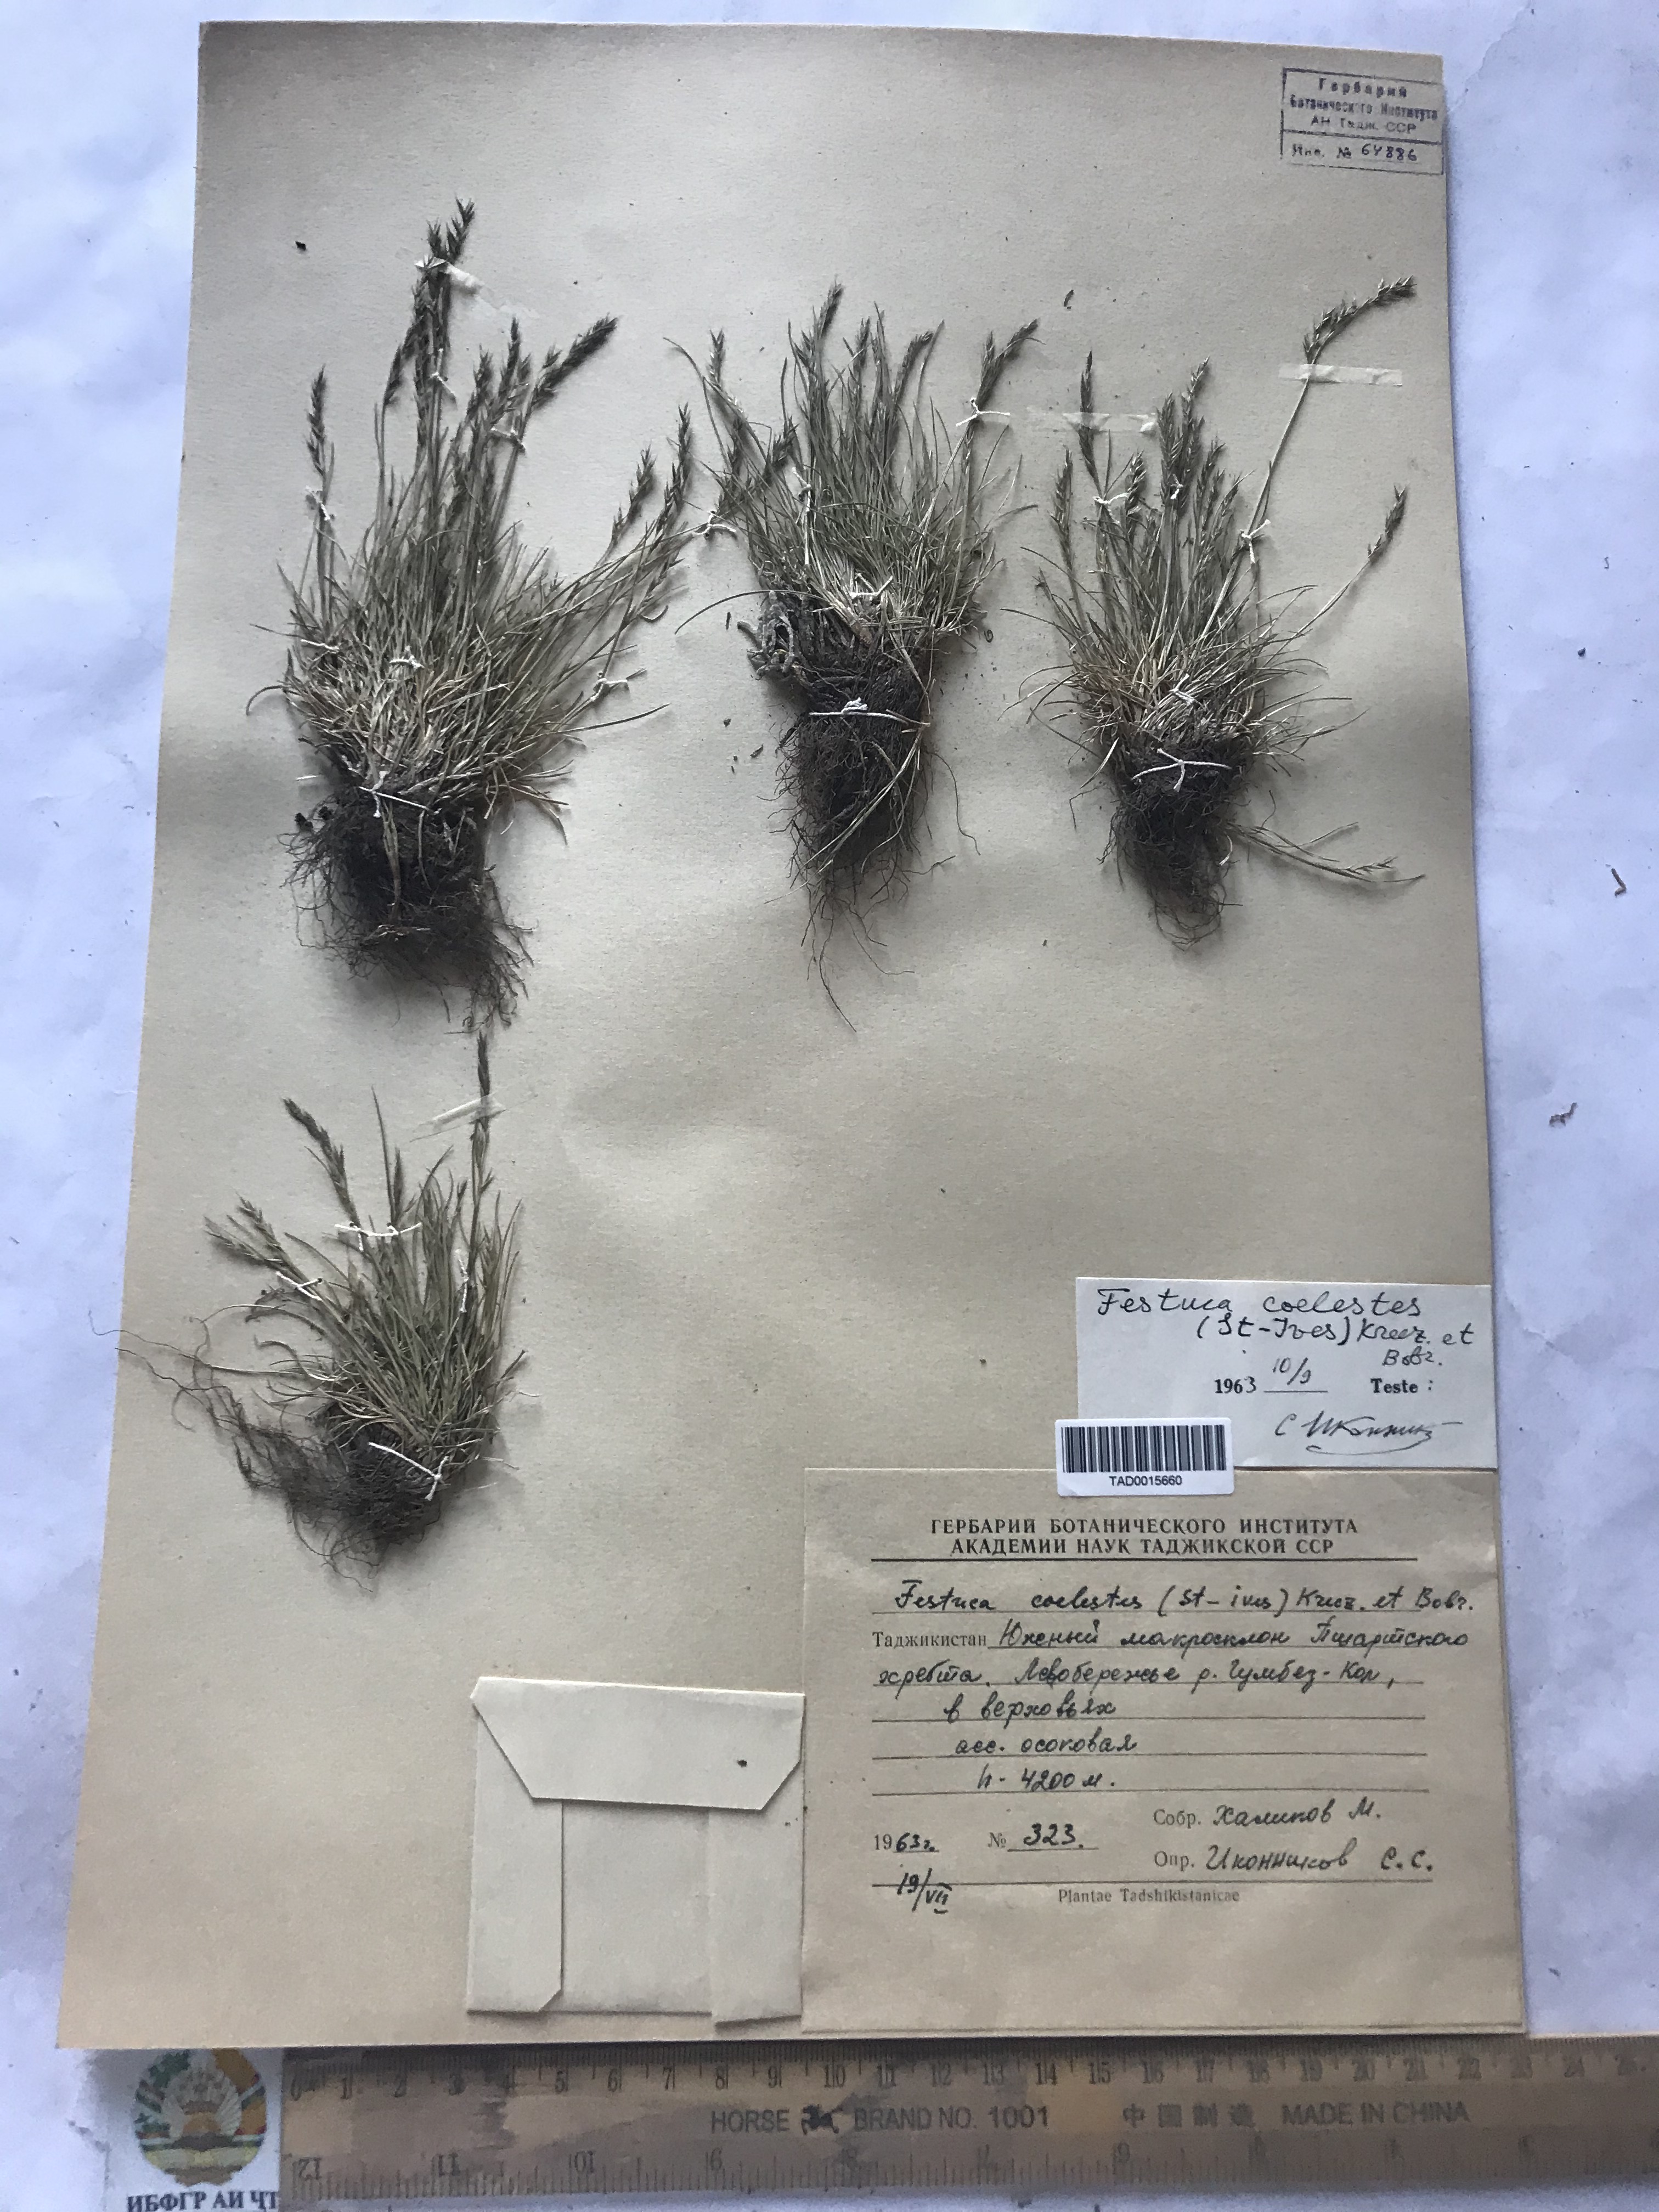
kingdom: Plantae
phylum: Tracheophyta
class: Liliopsida
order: Poales
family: Poaceae
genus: Festuca
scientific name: Festuca coelestis
